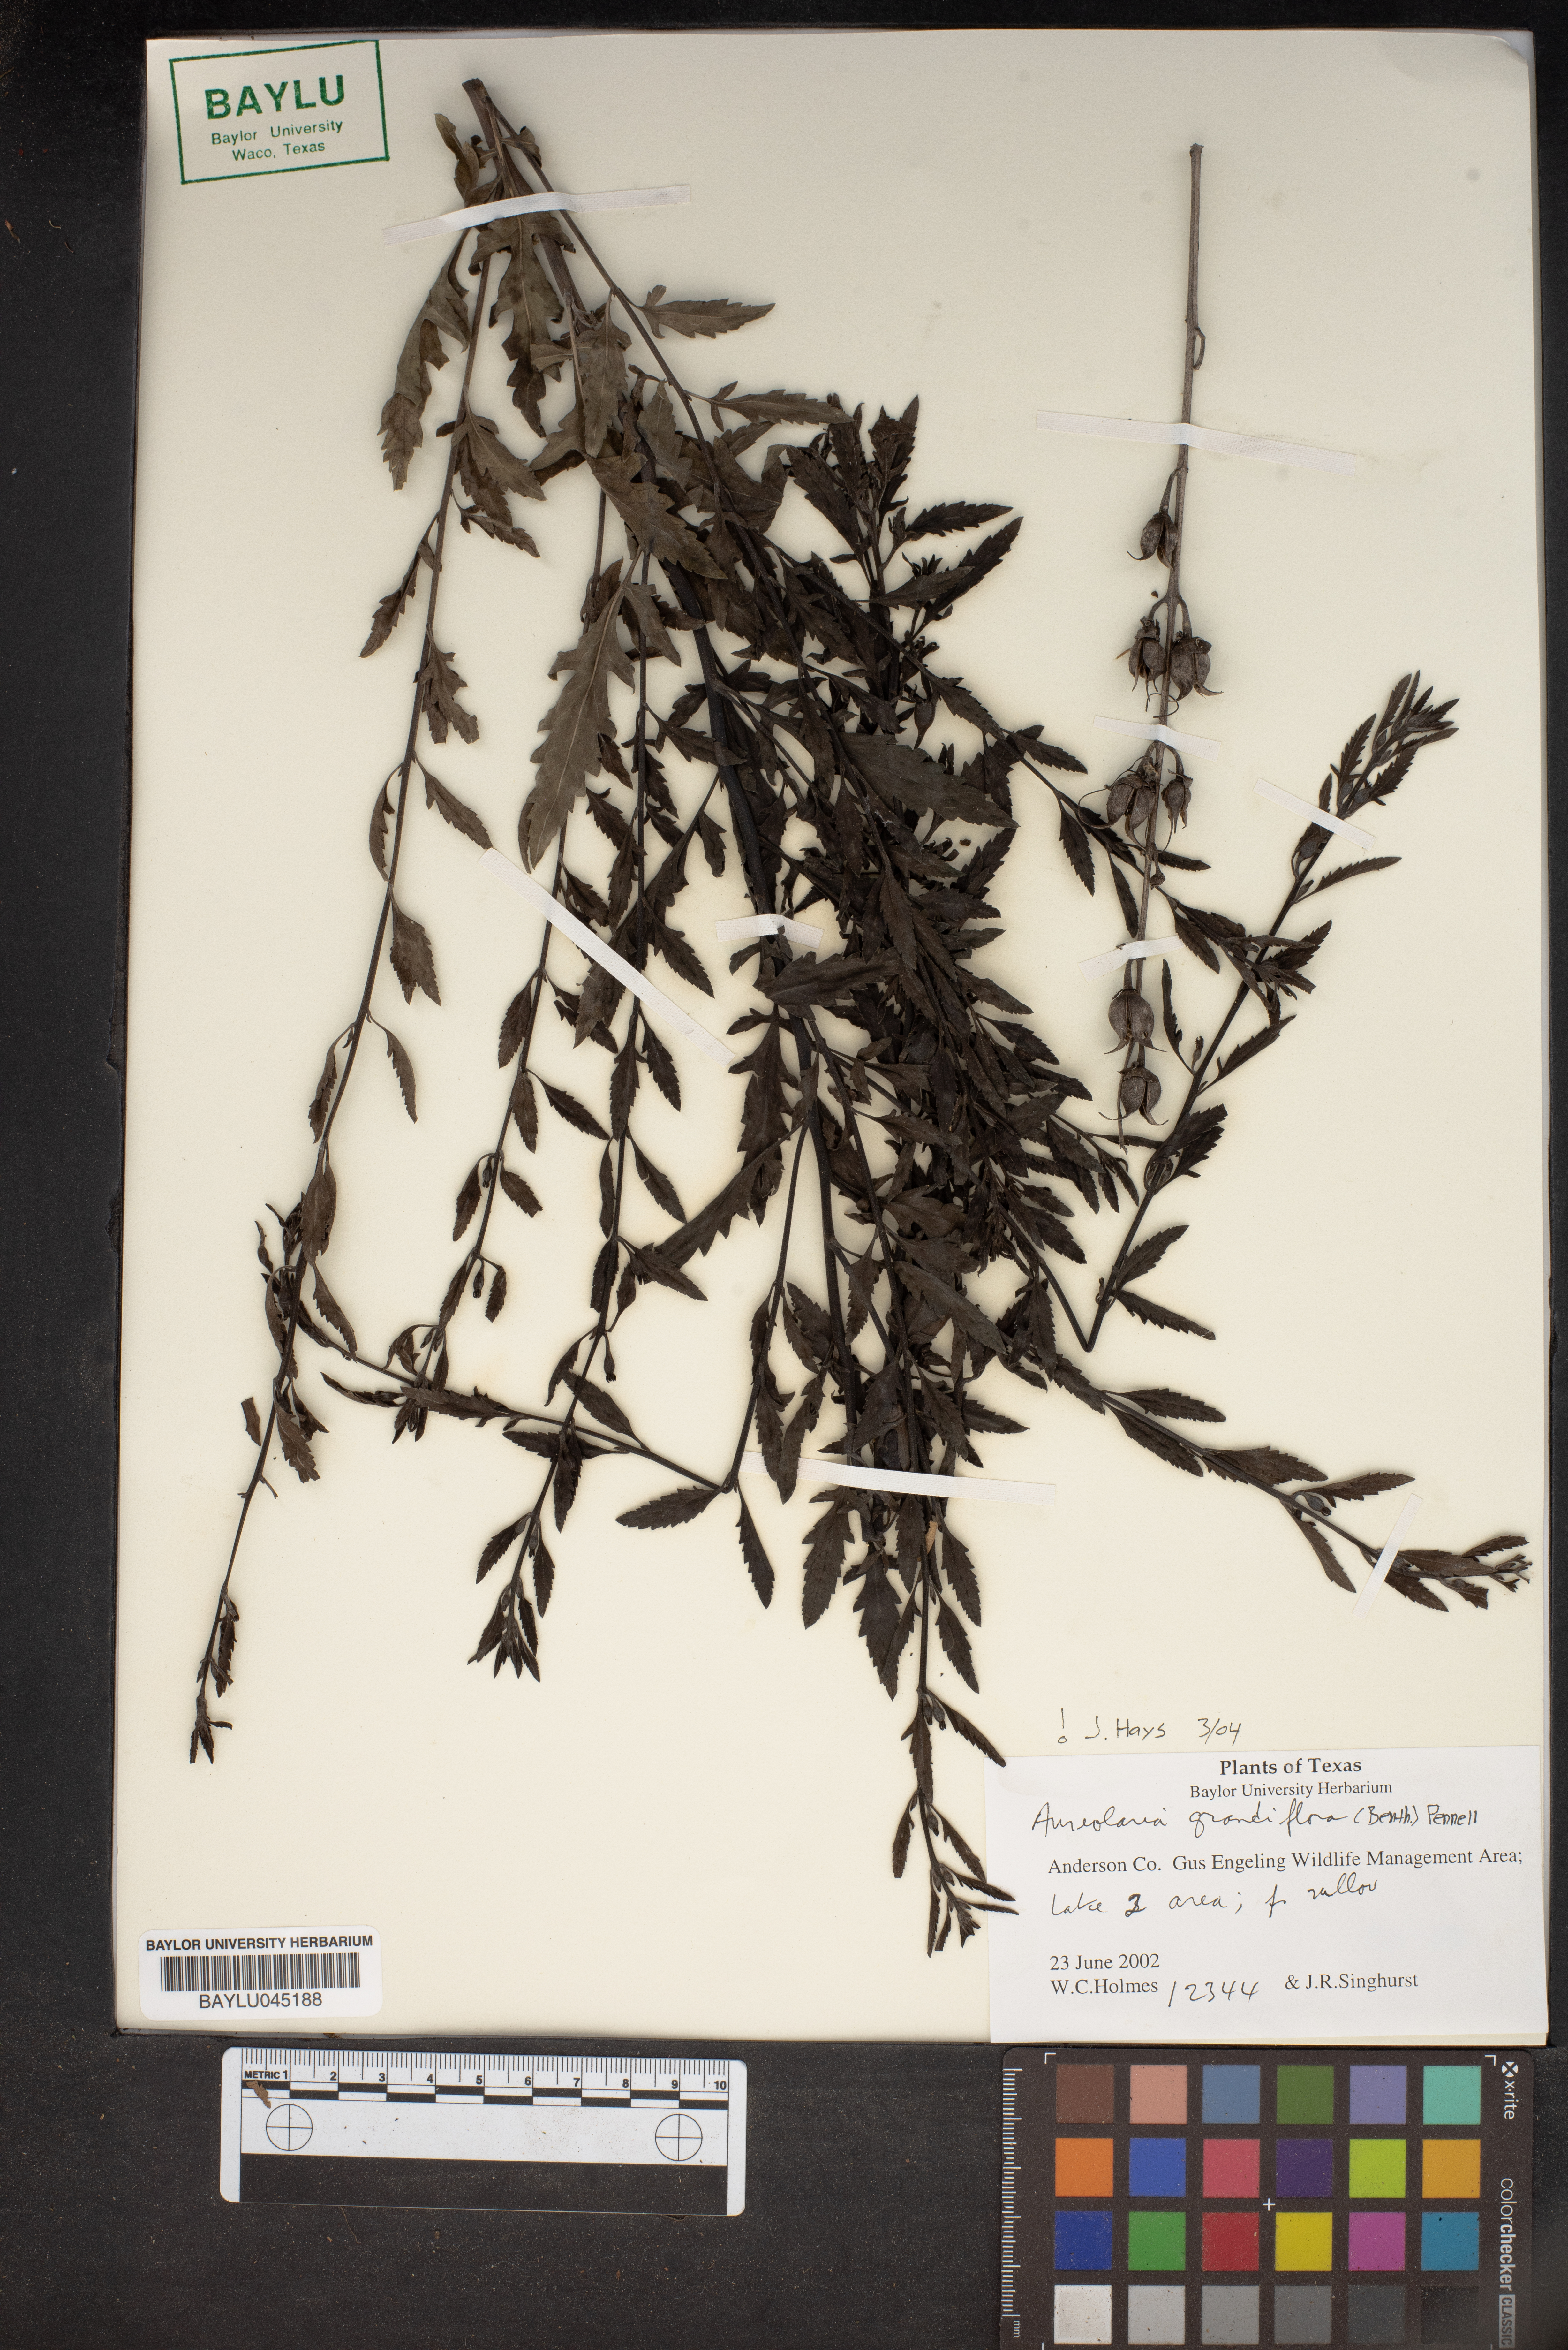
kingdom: Plantae
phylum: Tracheophyta
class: Magnoliopsida
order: Lamiales
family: Orobanchaceae
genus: Aureolaria
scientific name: Aureolaria grandiflora
